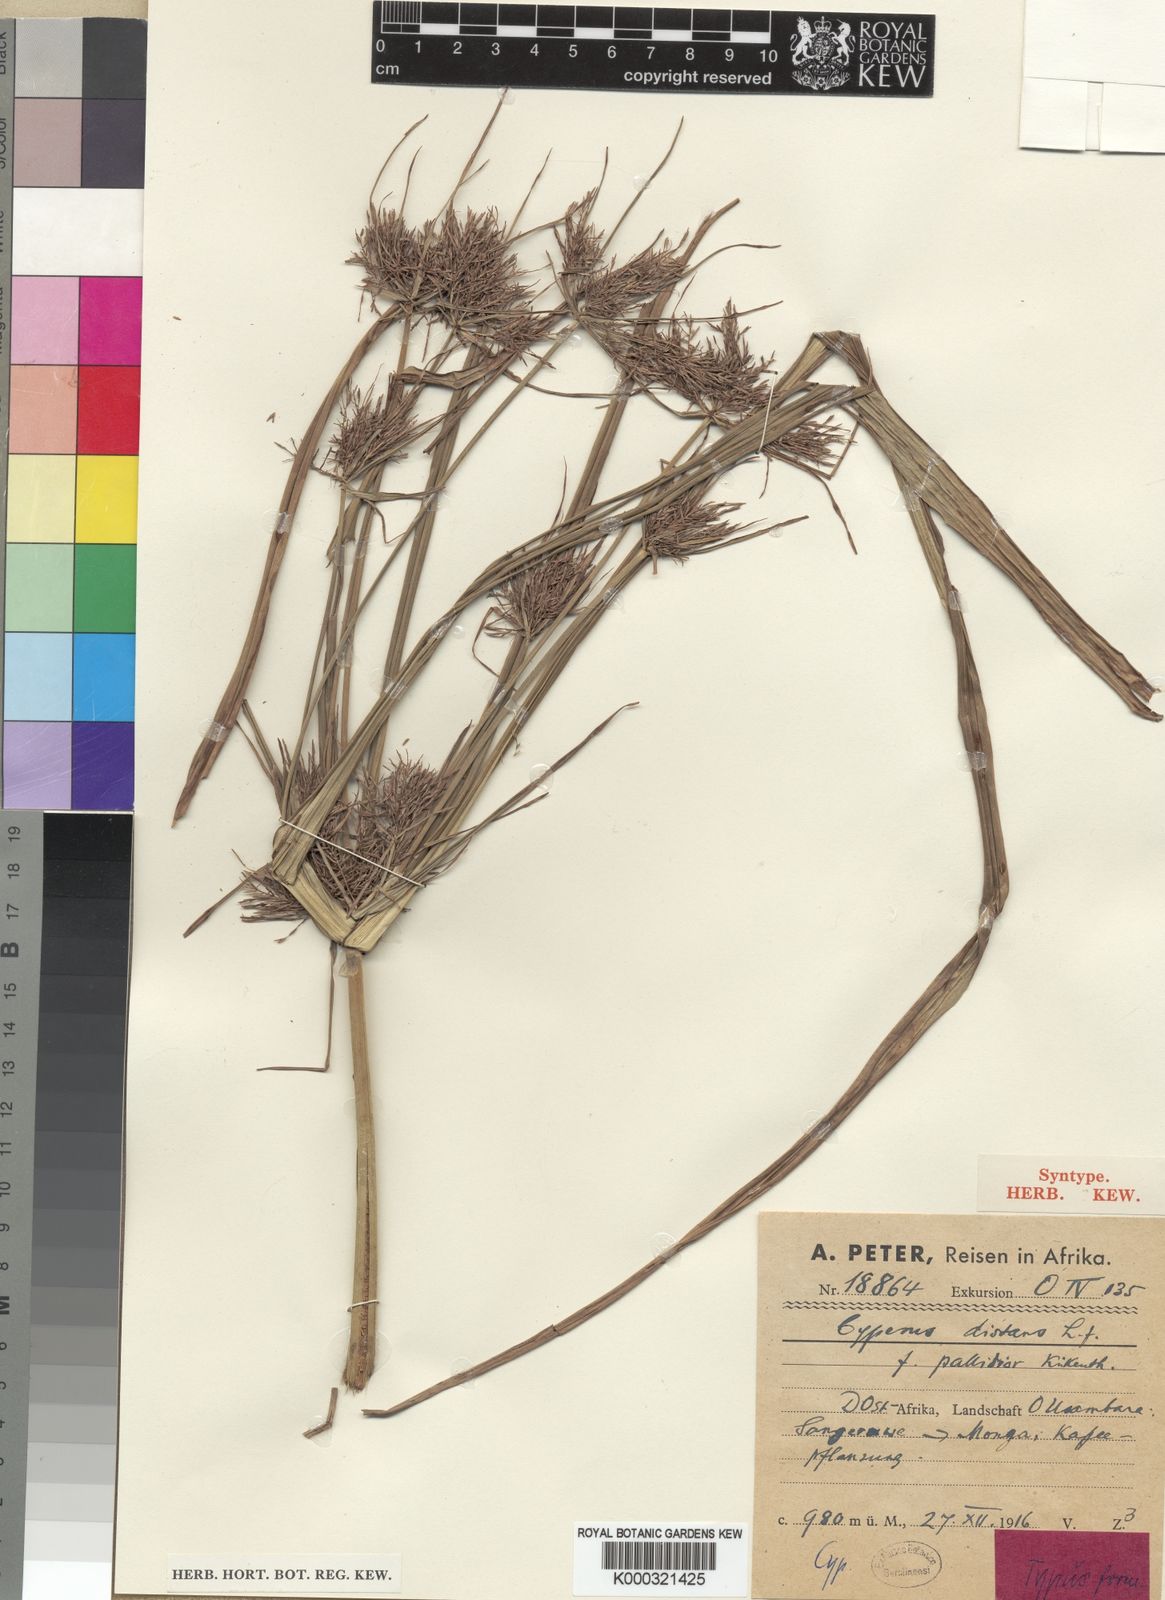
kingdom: Plantae
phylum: Tracheophyta
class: Liliopsida
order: Poales
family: Cyperaceae
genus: Cyperus
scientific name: Cyperus distans
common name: Slender cyperus
